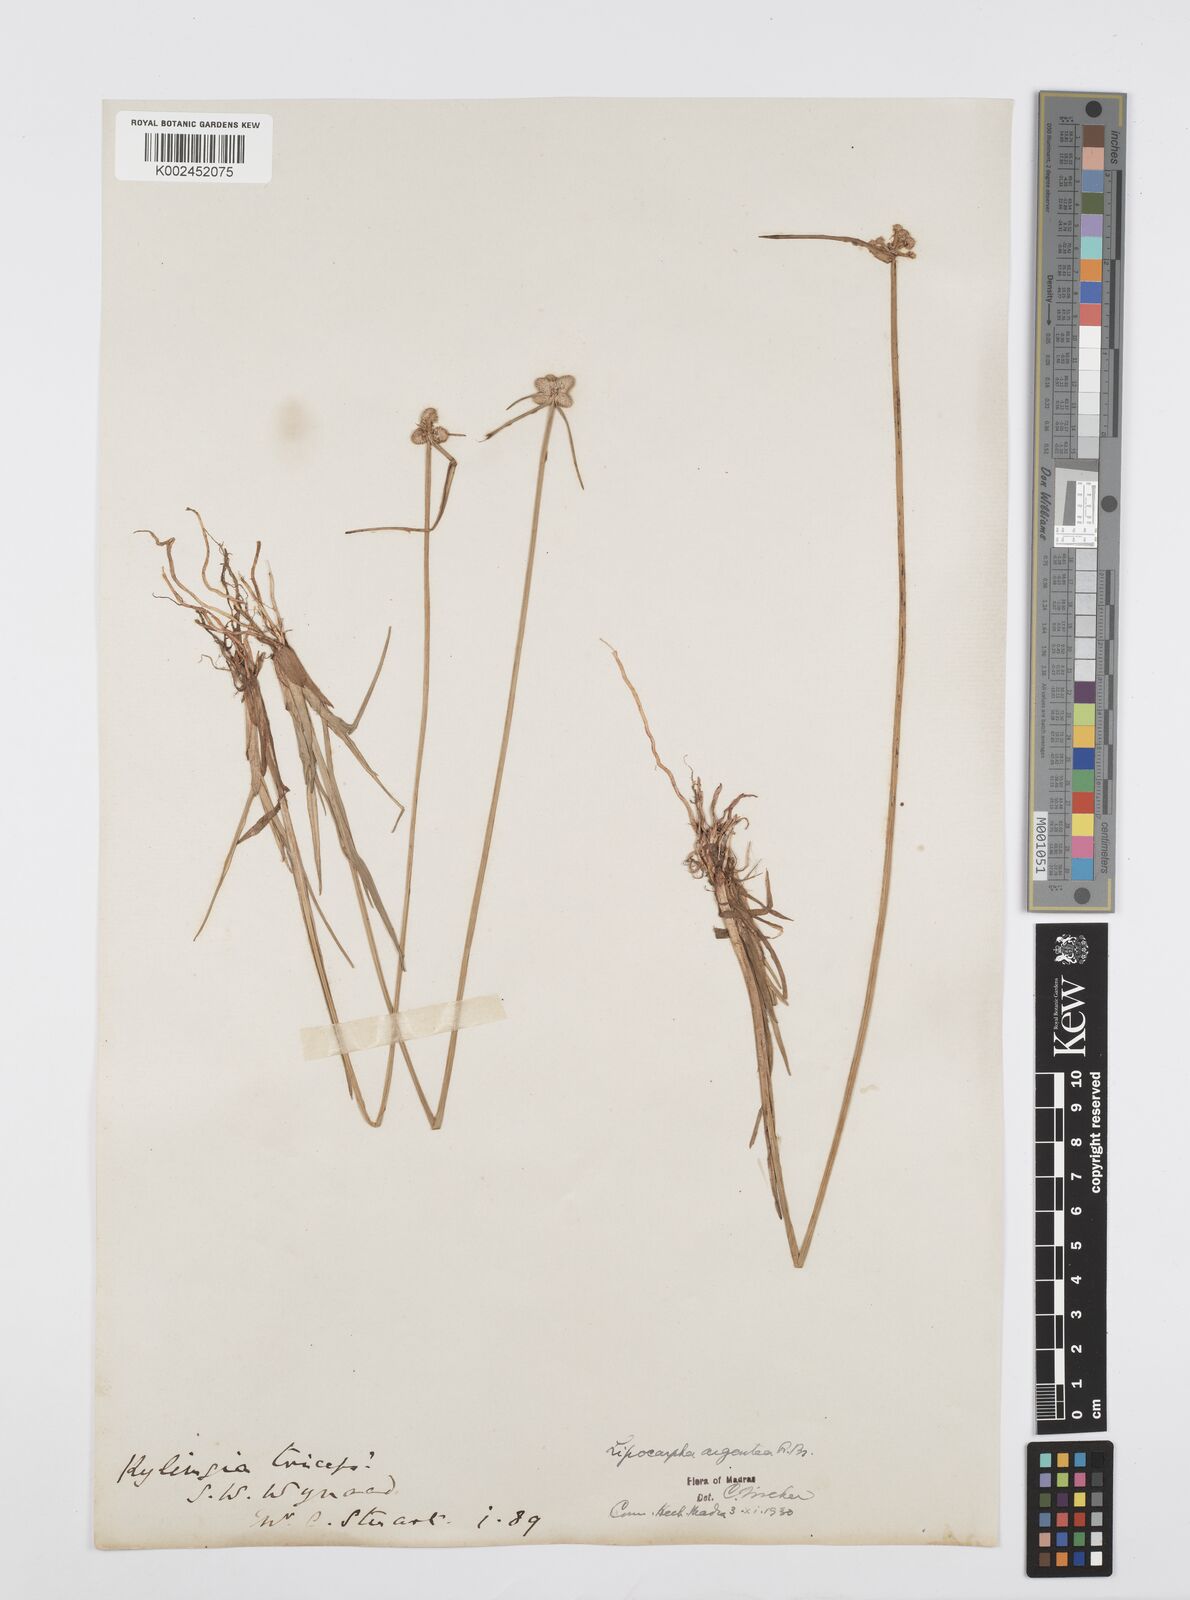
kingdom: Plantae
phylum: Tracheophyta
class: Liliopsida
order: Poales
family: Cyperaceae
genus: Cyperus
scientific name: Cyperus
